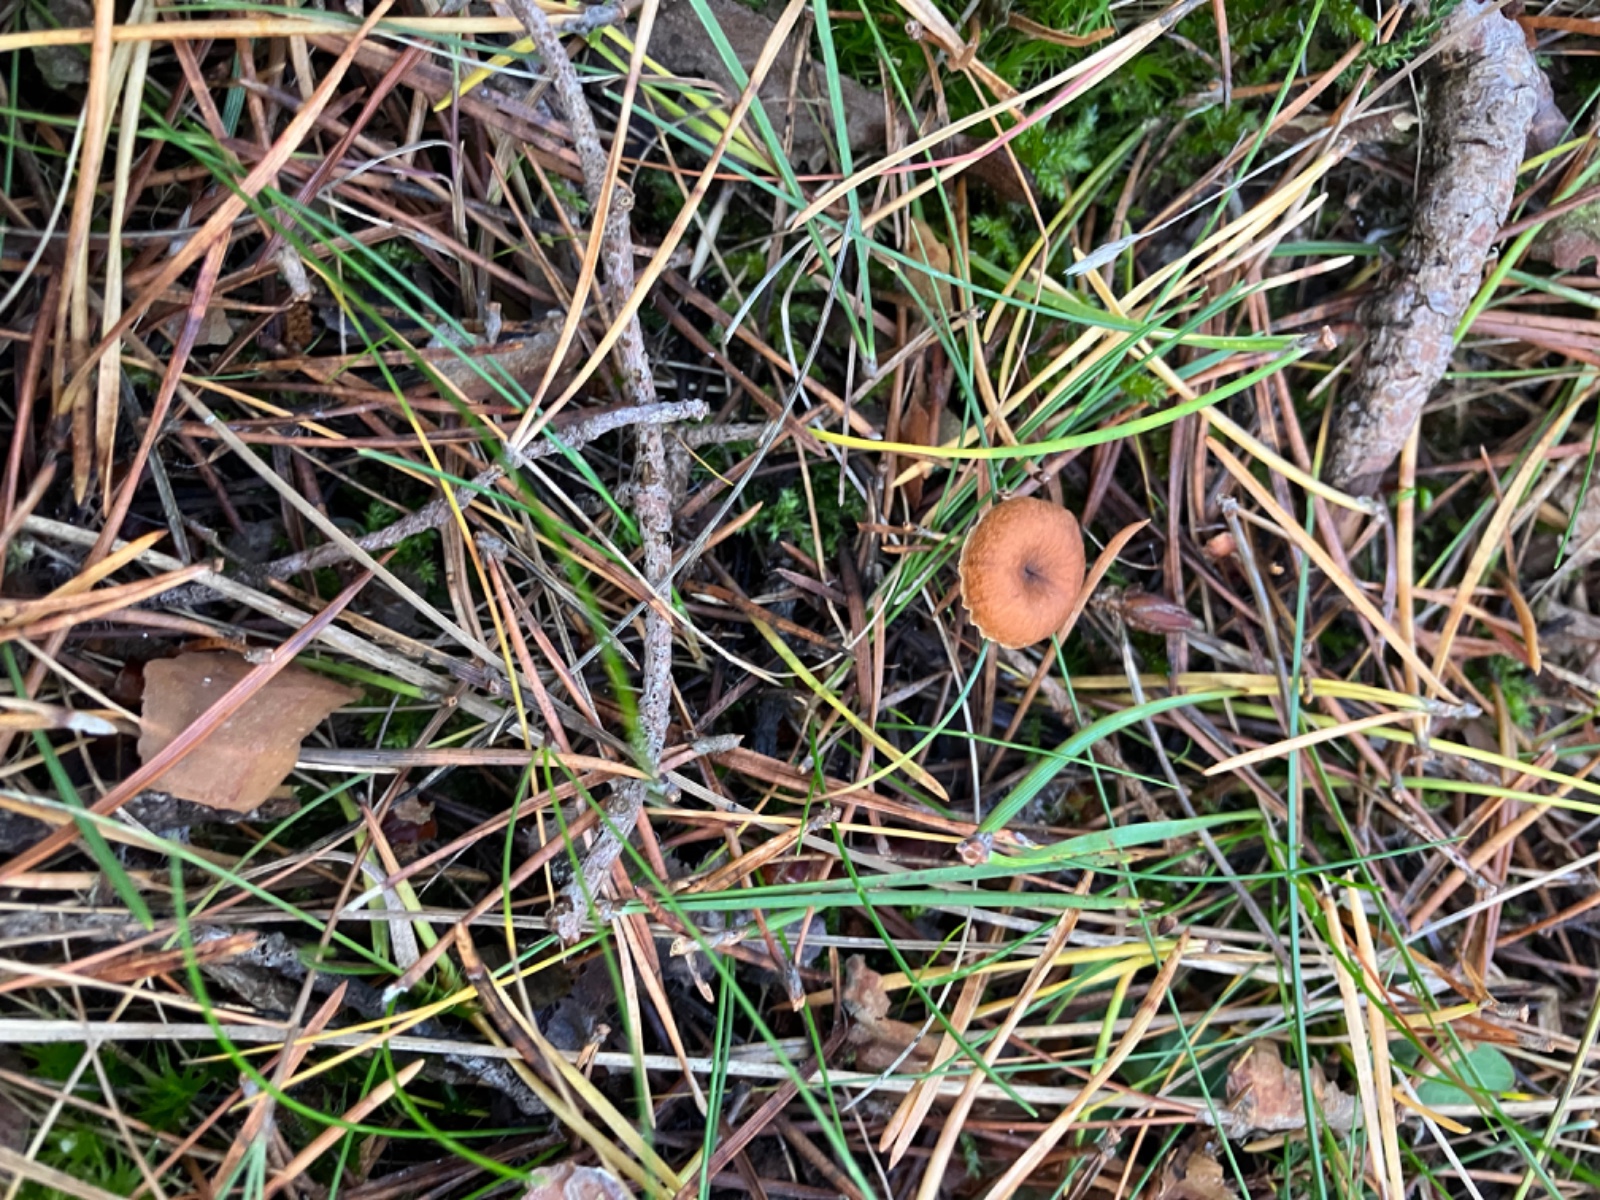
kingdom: Fungi
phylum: Basidiomycota
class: Agaricomycetes
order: Agaricales
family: Mycenaceae
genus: Xeromphalina
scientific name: Xeromphalina
